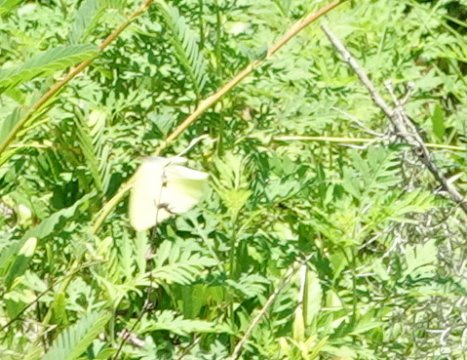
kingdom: Animalia
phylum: Arthropoda
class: Insecta
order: Lepidoptera
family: Pieridae
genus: Phoebis
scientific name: Phoebis sennae
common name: Cloudless Sulphur
